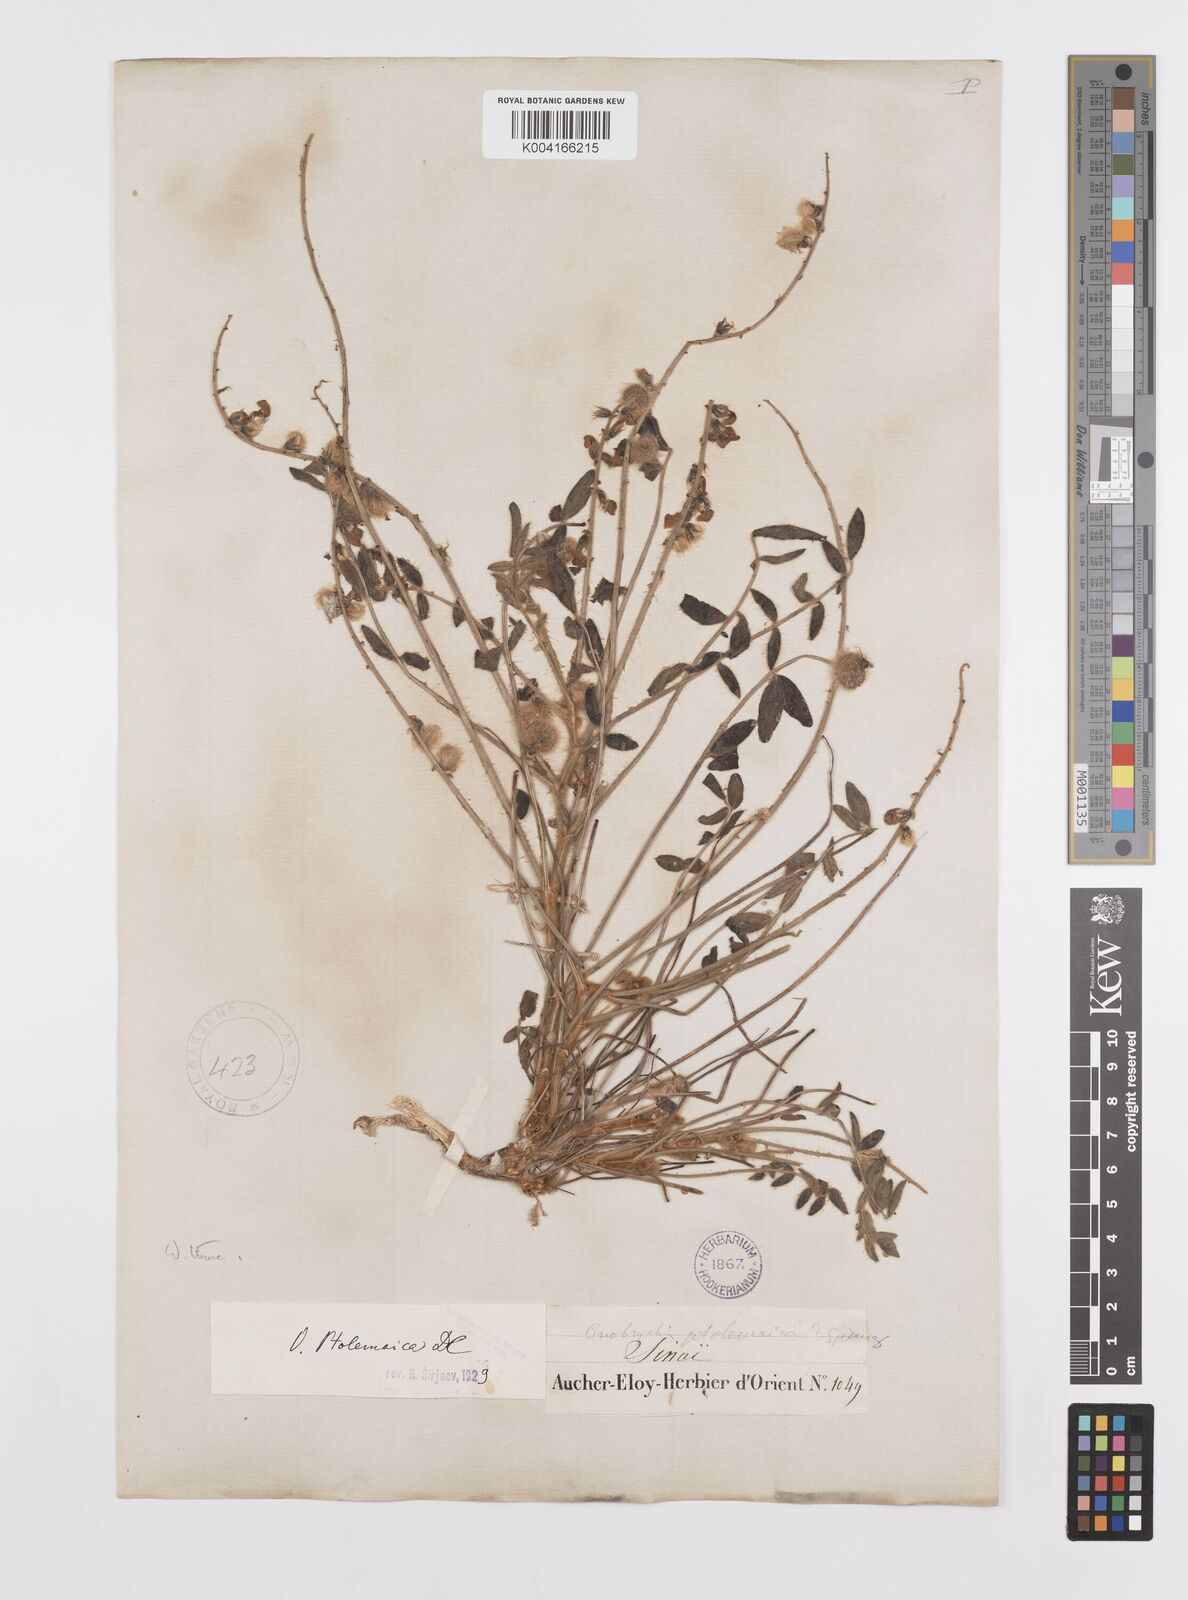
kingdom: Plantae
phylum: Tracheophyta
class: Magnoliopsida
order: Fabales
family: Fabaceae
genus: Onobrychis
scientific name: Onobrychis ptolemaica
